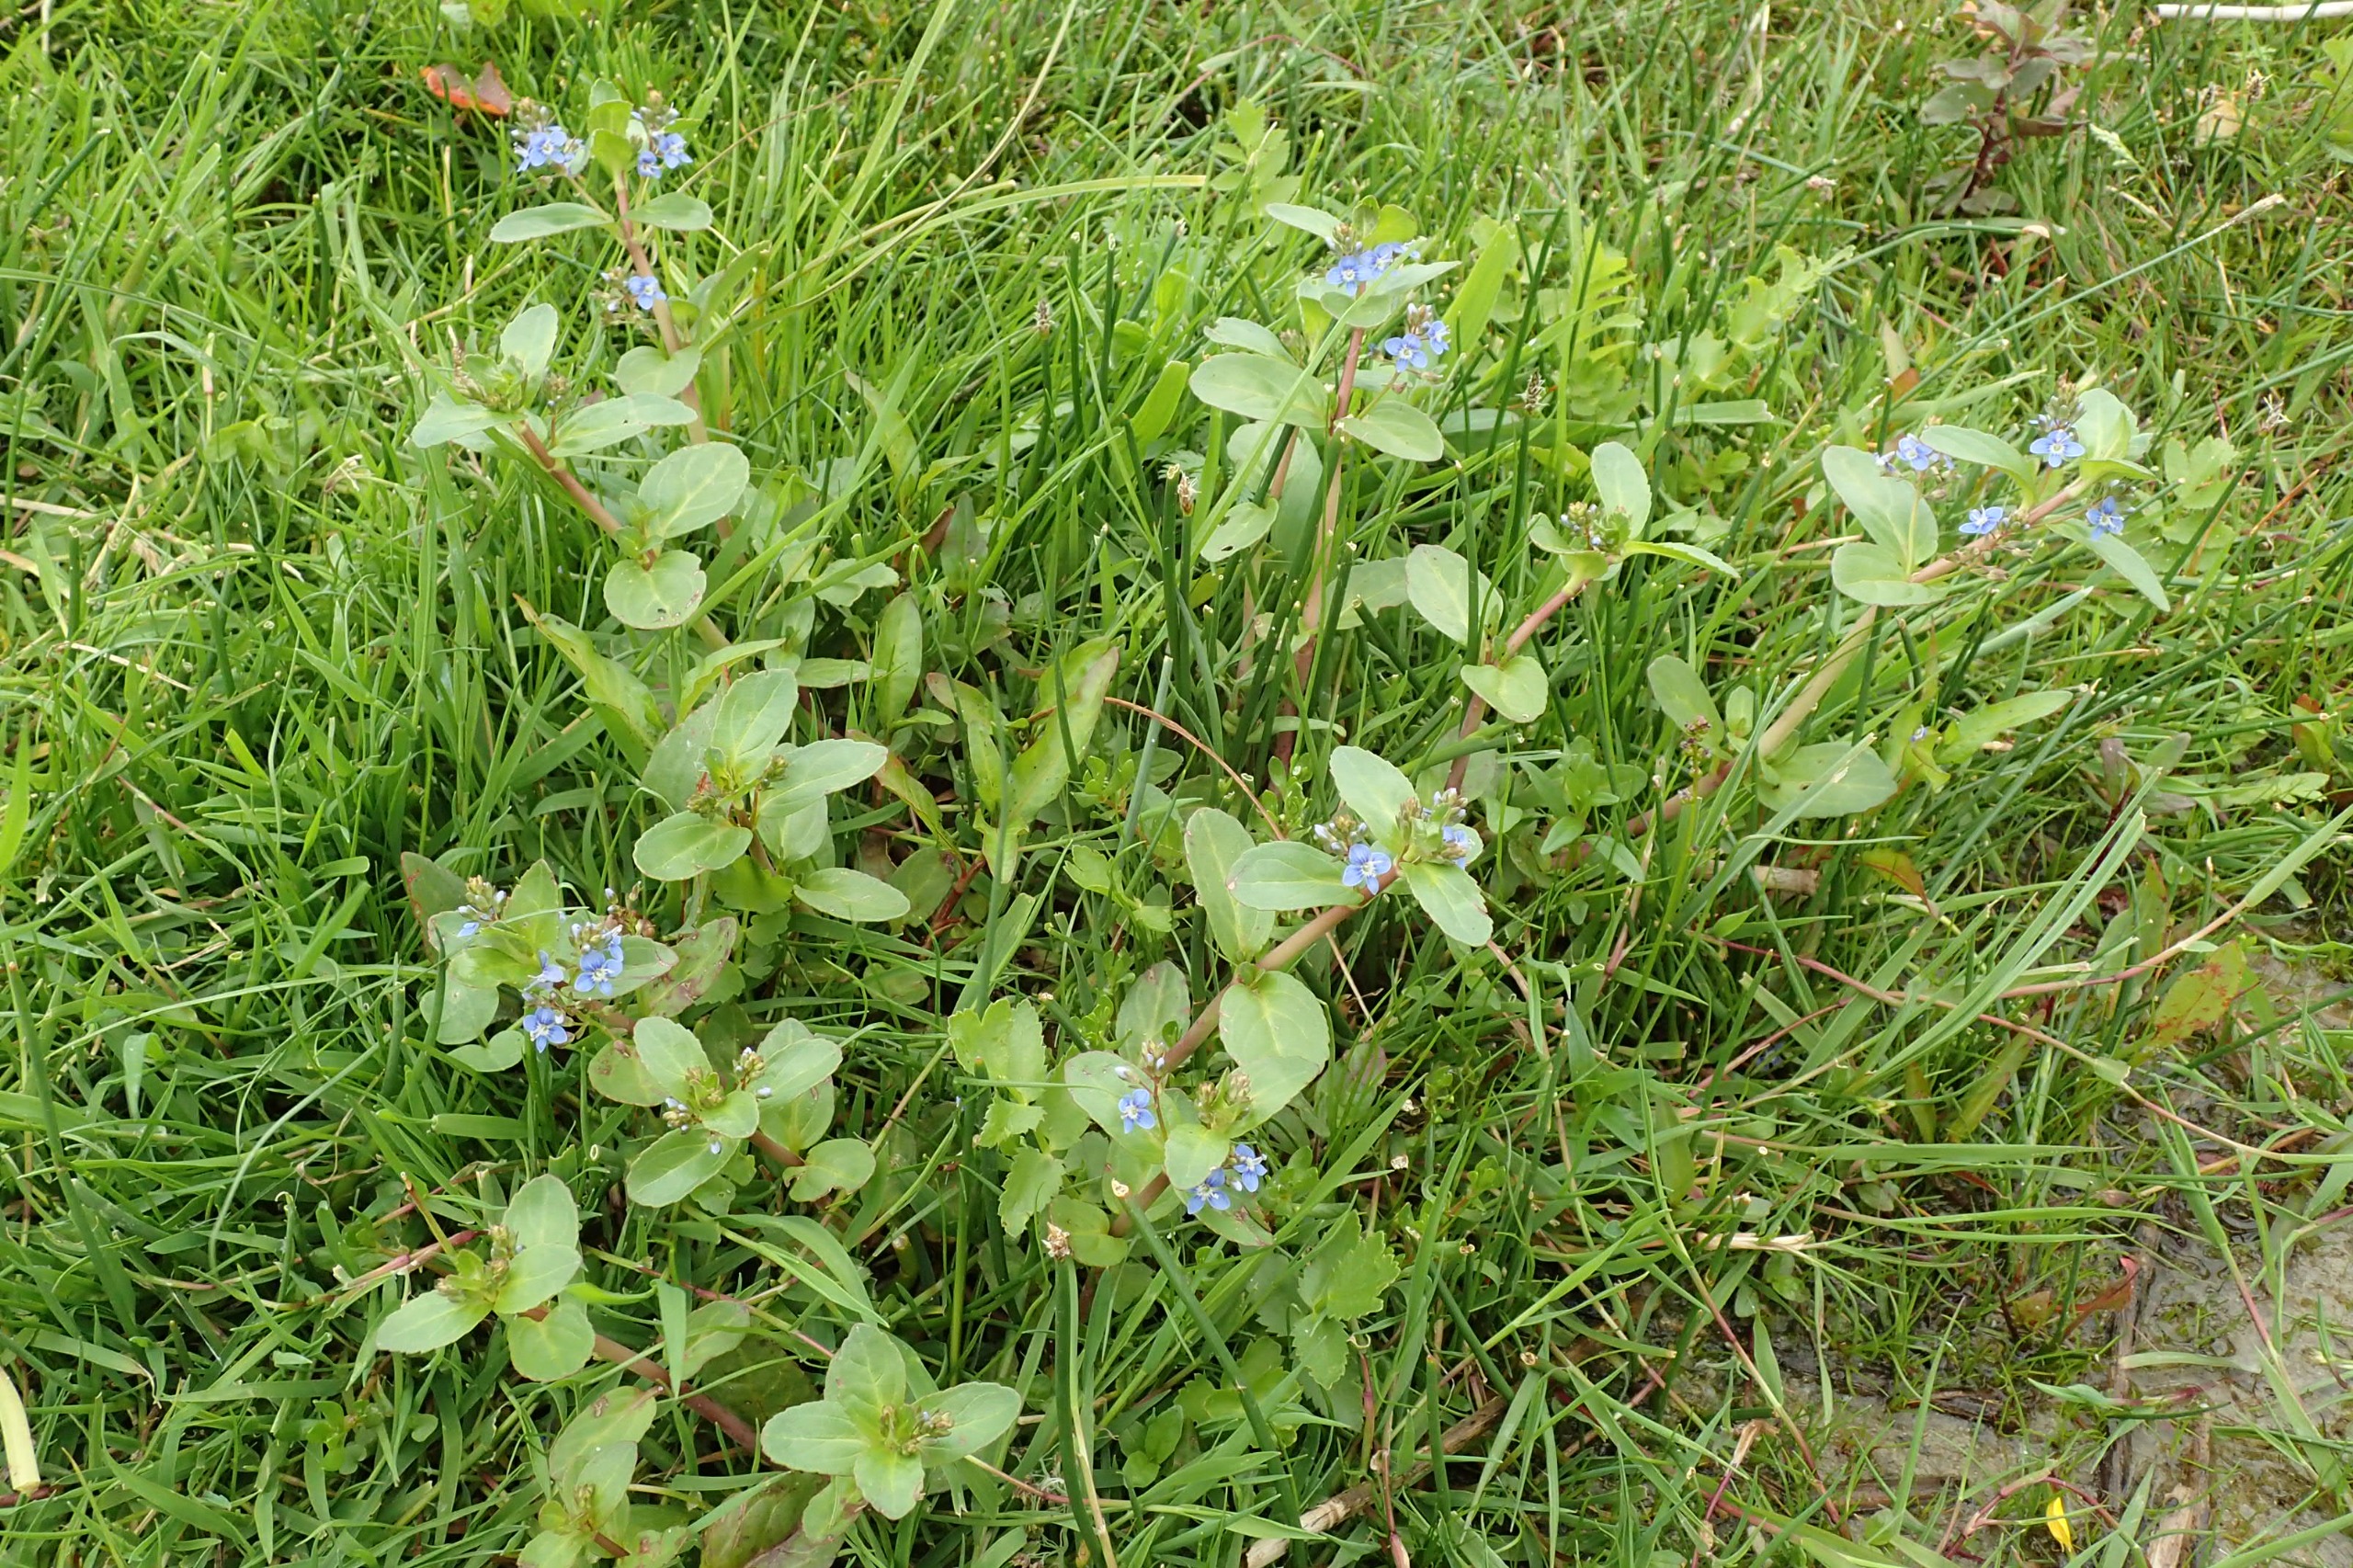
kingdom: Plantae
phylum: Tracheophyta
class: Magnoliopsida
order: Lamiales
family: Plantaginaceae
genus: Veronica
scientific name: Veronica beccabunga
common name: Tykbladet ærenpris
